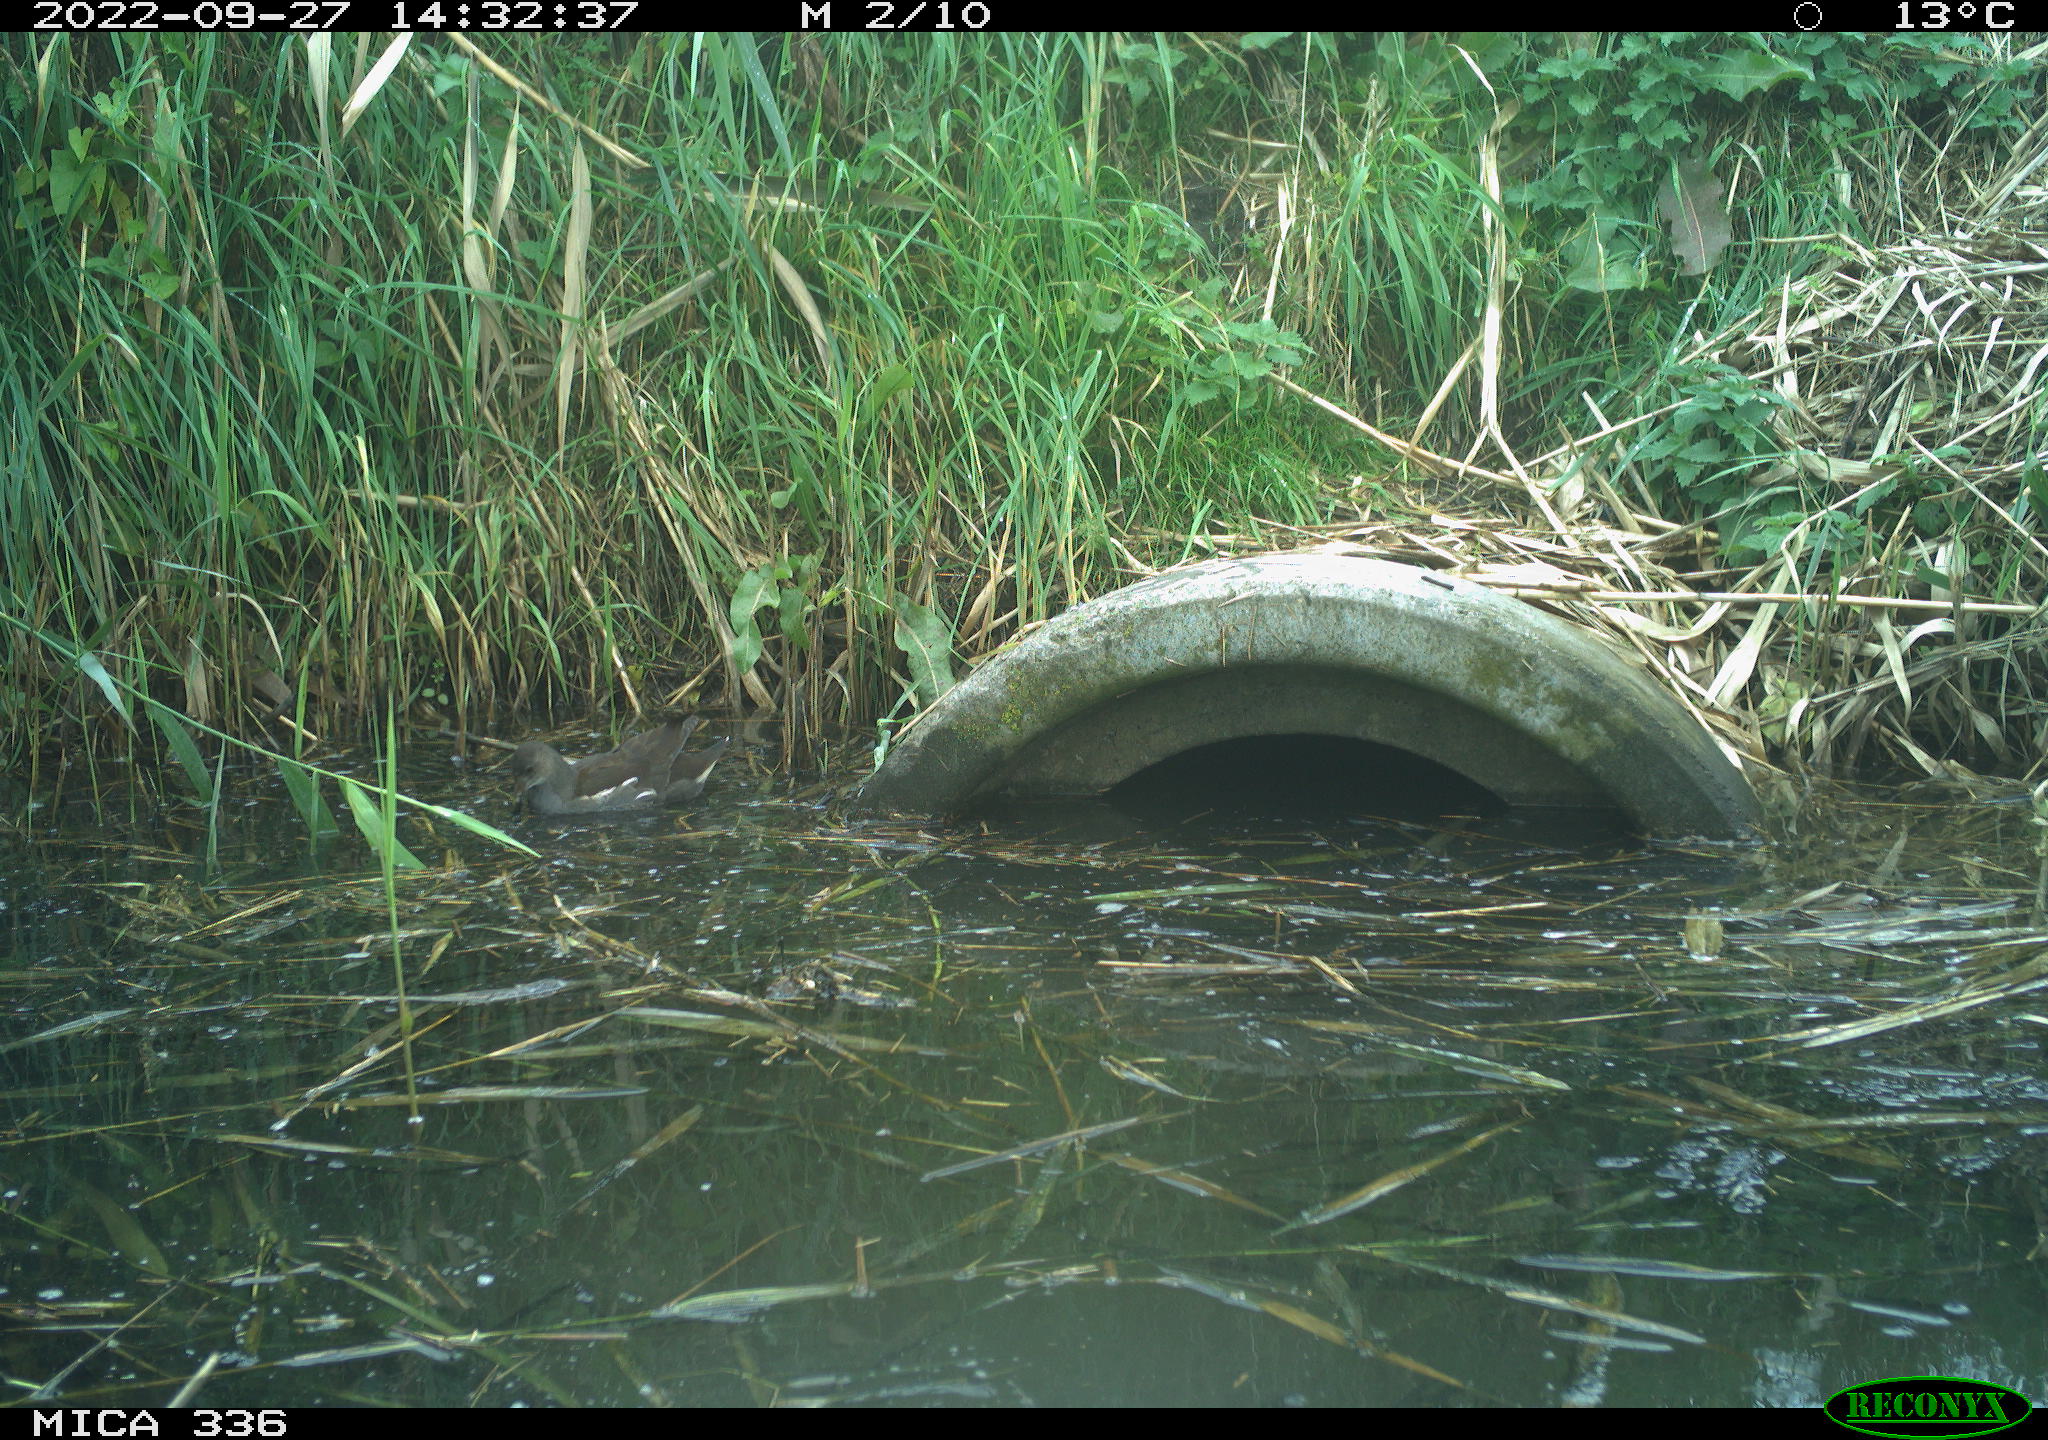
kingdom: Animalia
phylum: Chordata
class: Aves
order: Gruiformes
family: Rallidae
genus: Gallinula
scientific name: Gallinula chloropus
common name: Common moorhen
